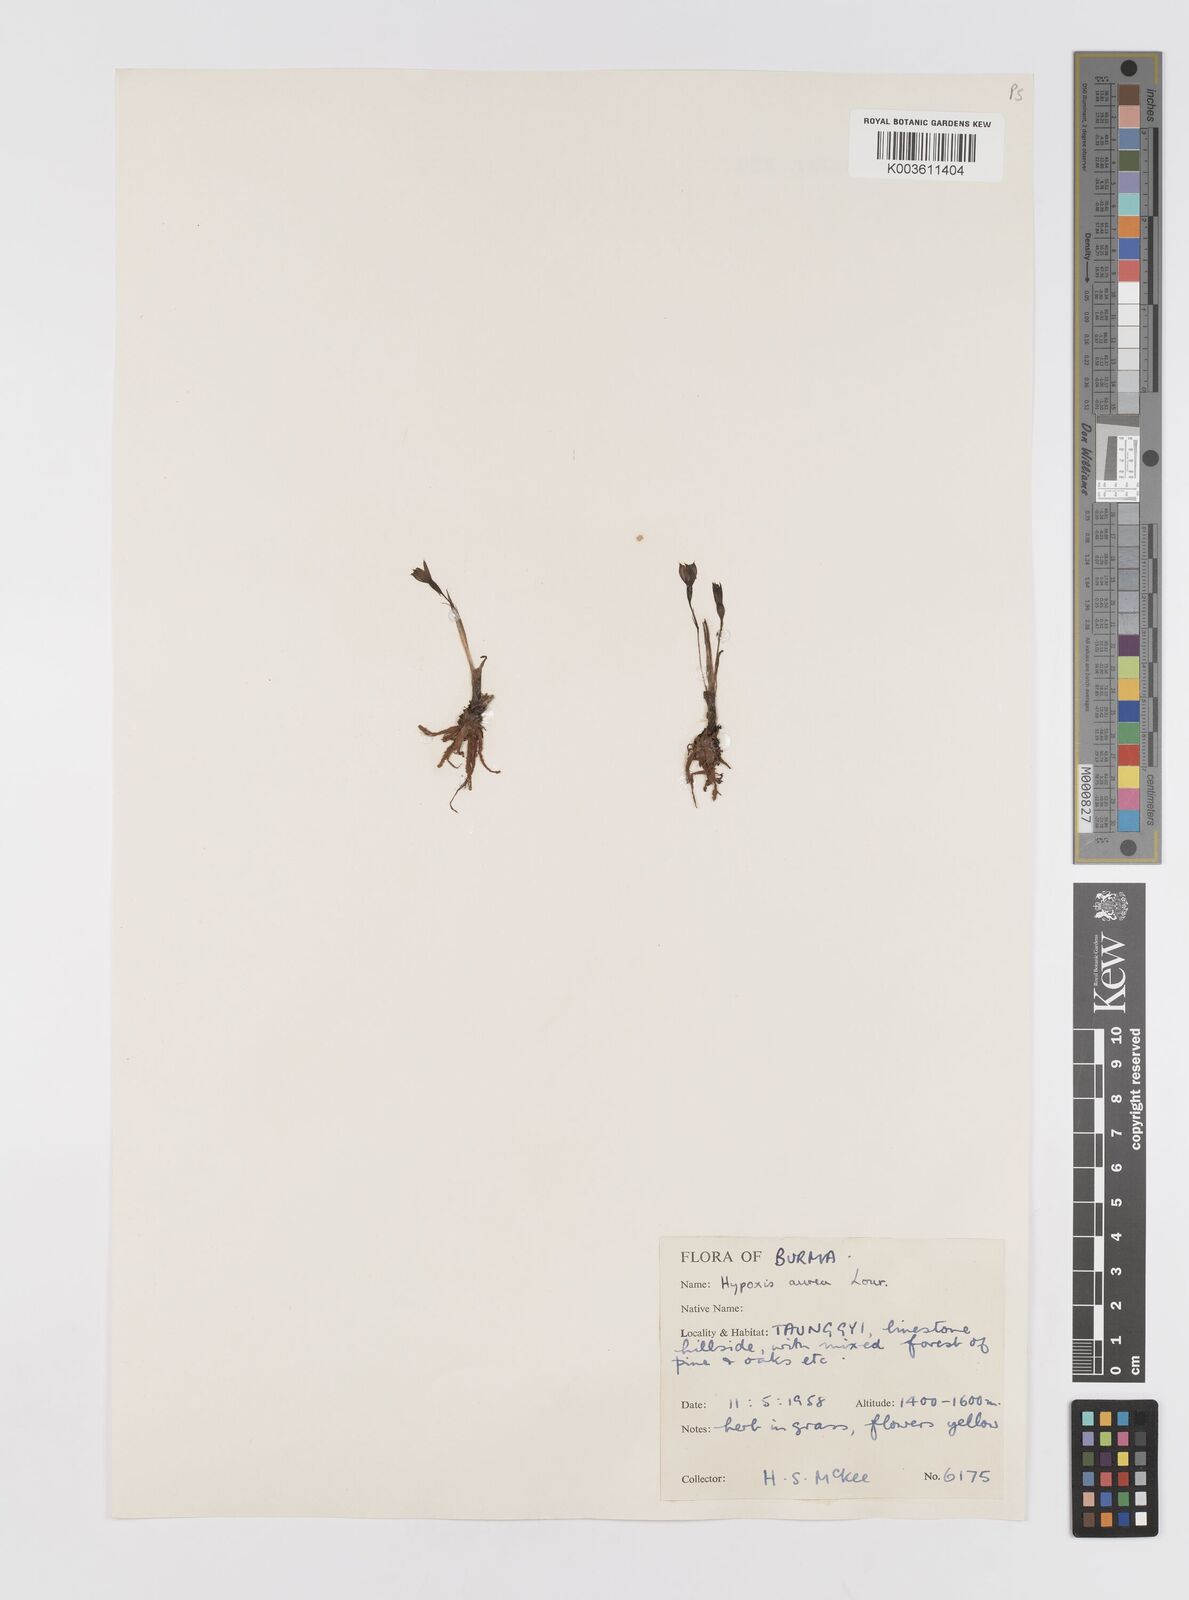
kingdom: Plantae
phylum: Tracheophyta
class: Liliopsida
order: Asparagales
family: Hypoxidaceae
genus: Hypoxis
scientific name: Hypoxis aurea
